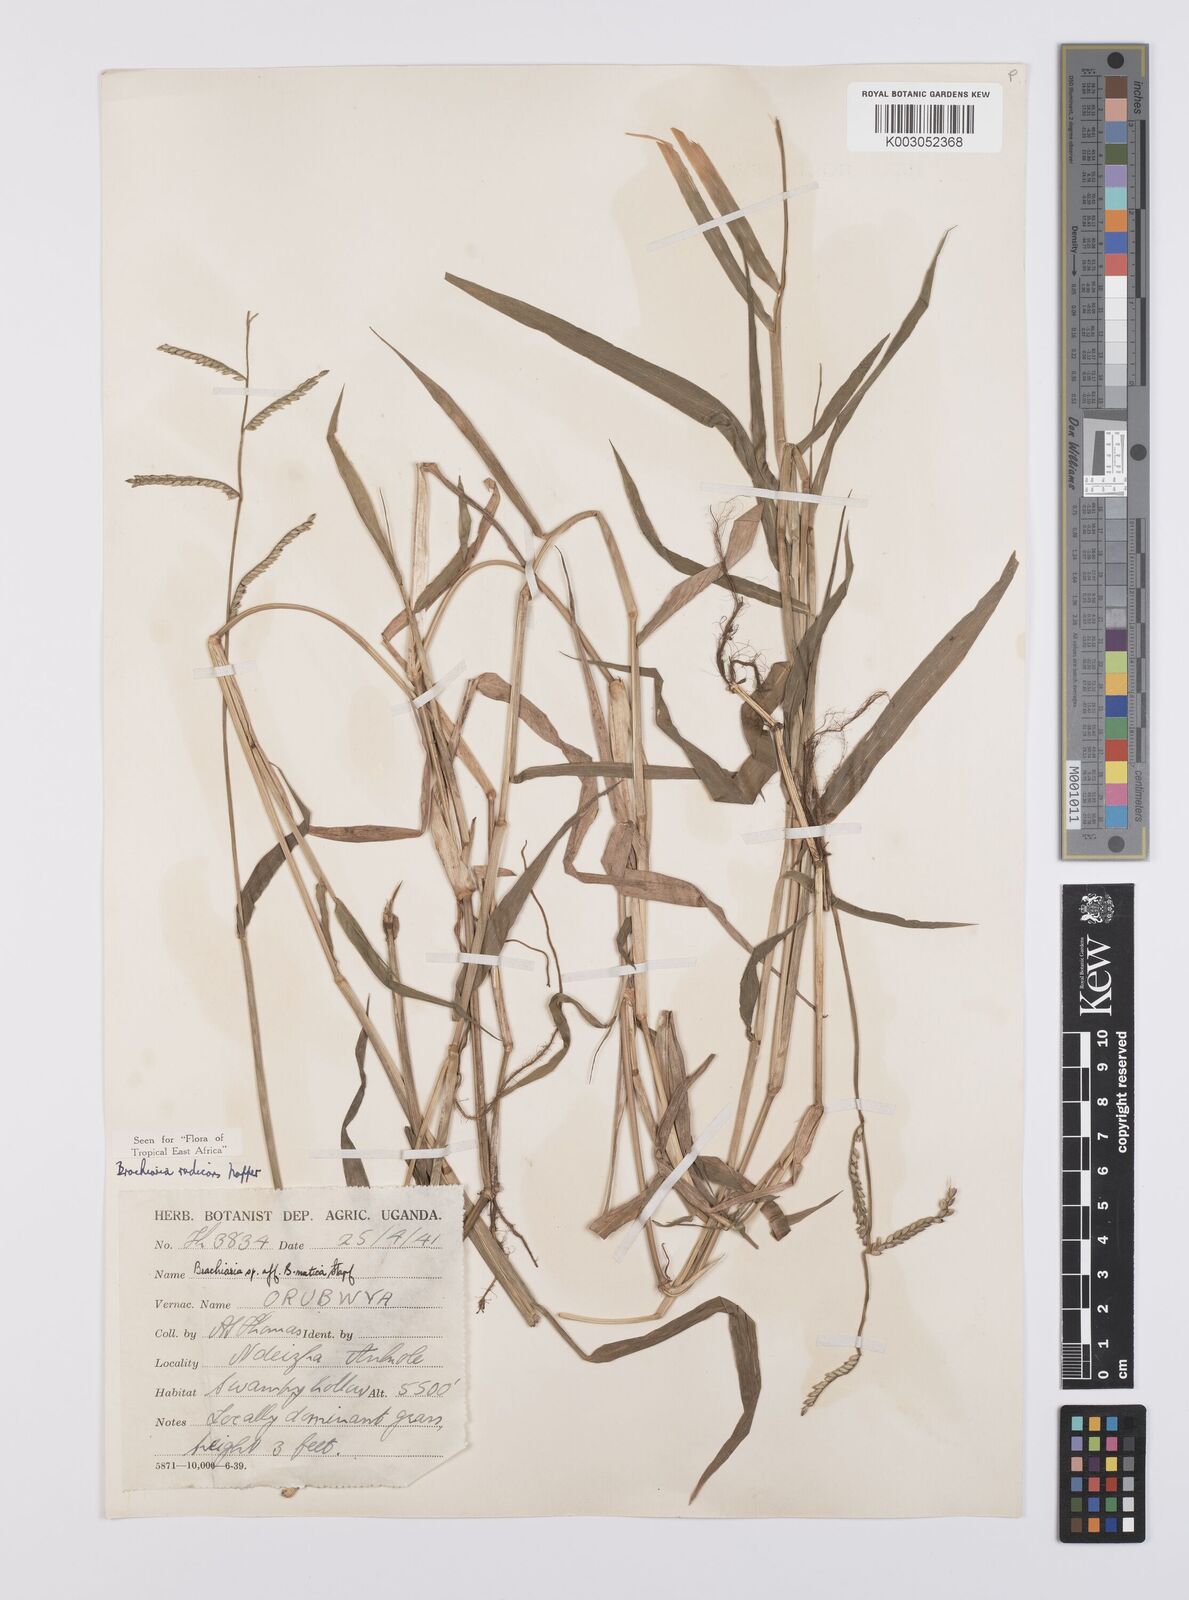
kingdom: Plantae
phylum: Tracheophyta
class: Liliopsida
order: Poales
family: Poaceae
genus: Urochloa
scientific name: Urochloa arrecta
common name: African signalgrass
